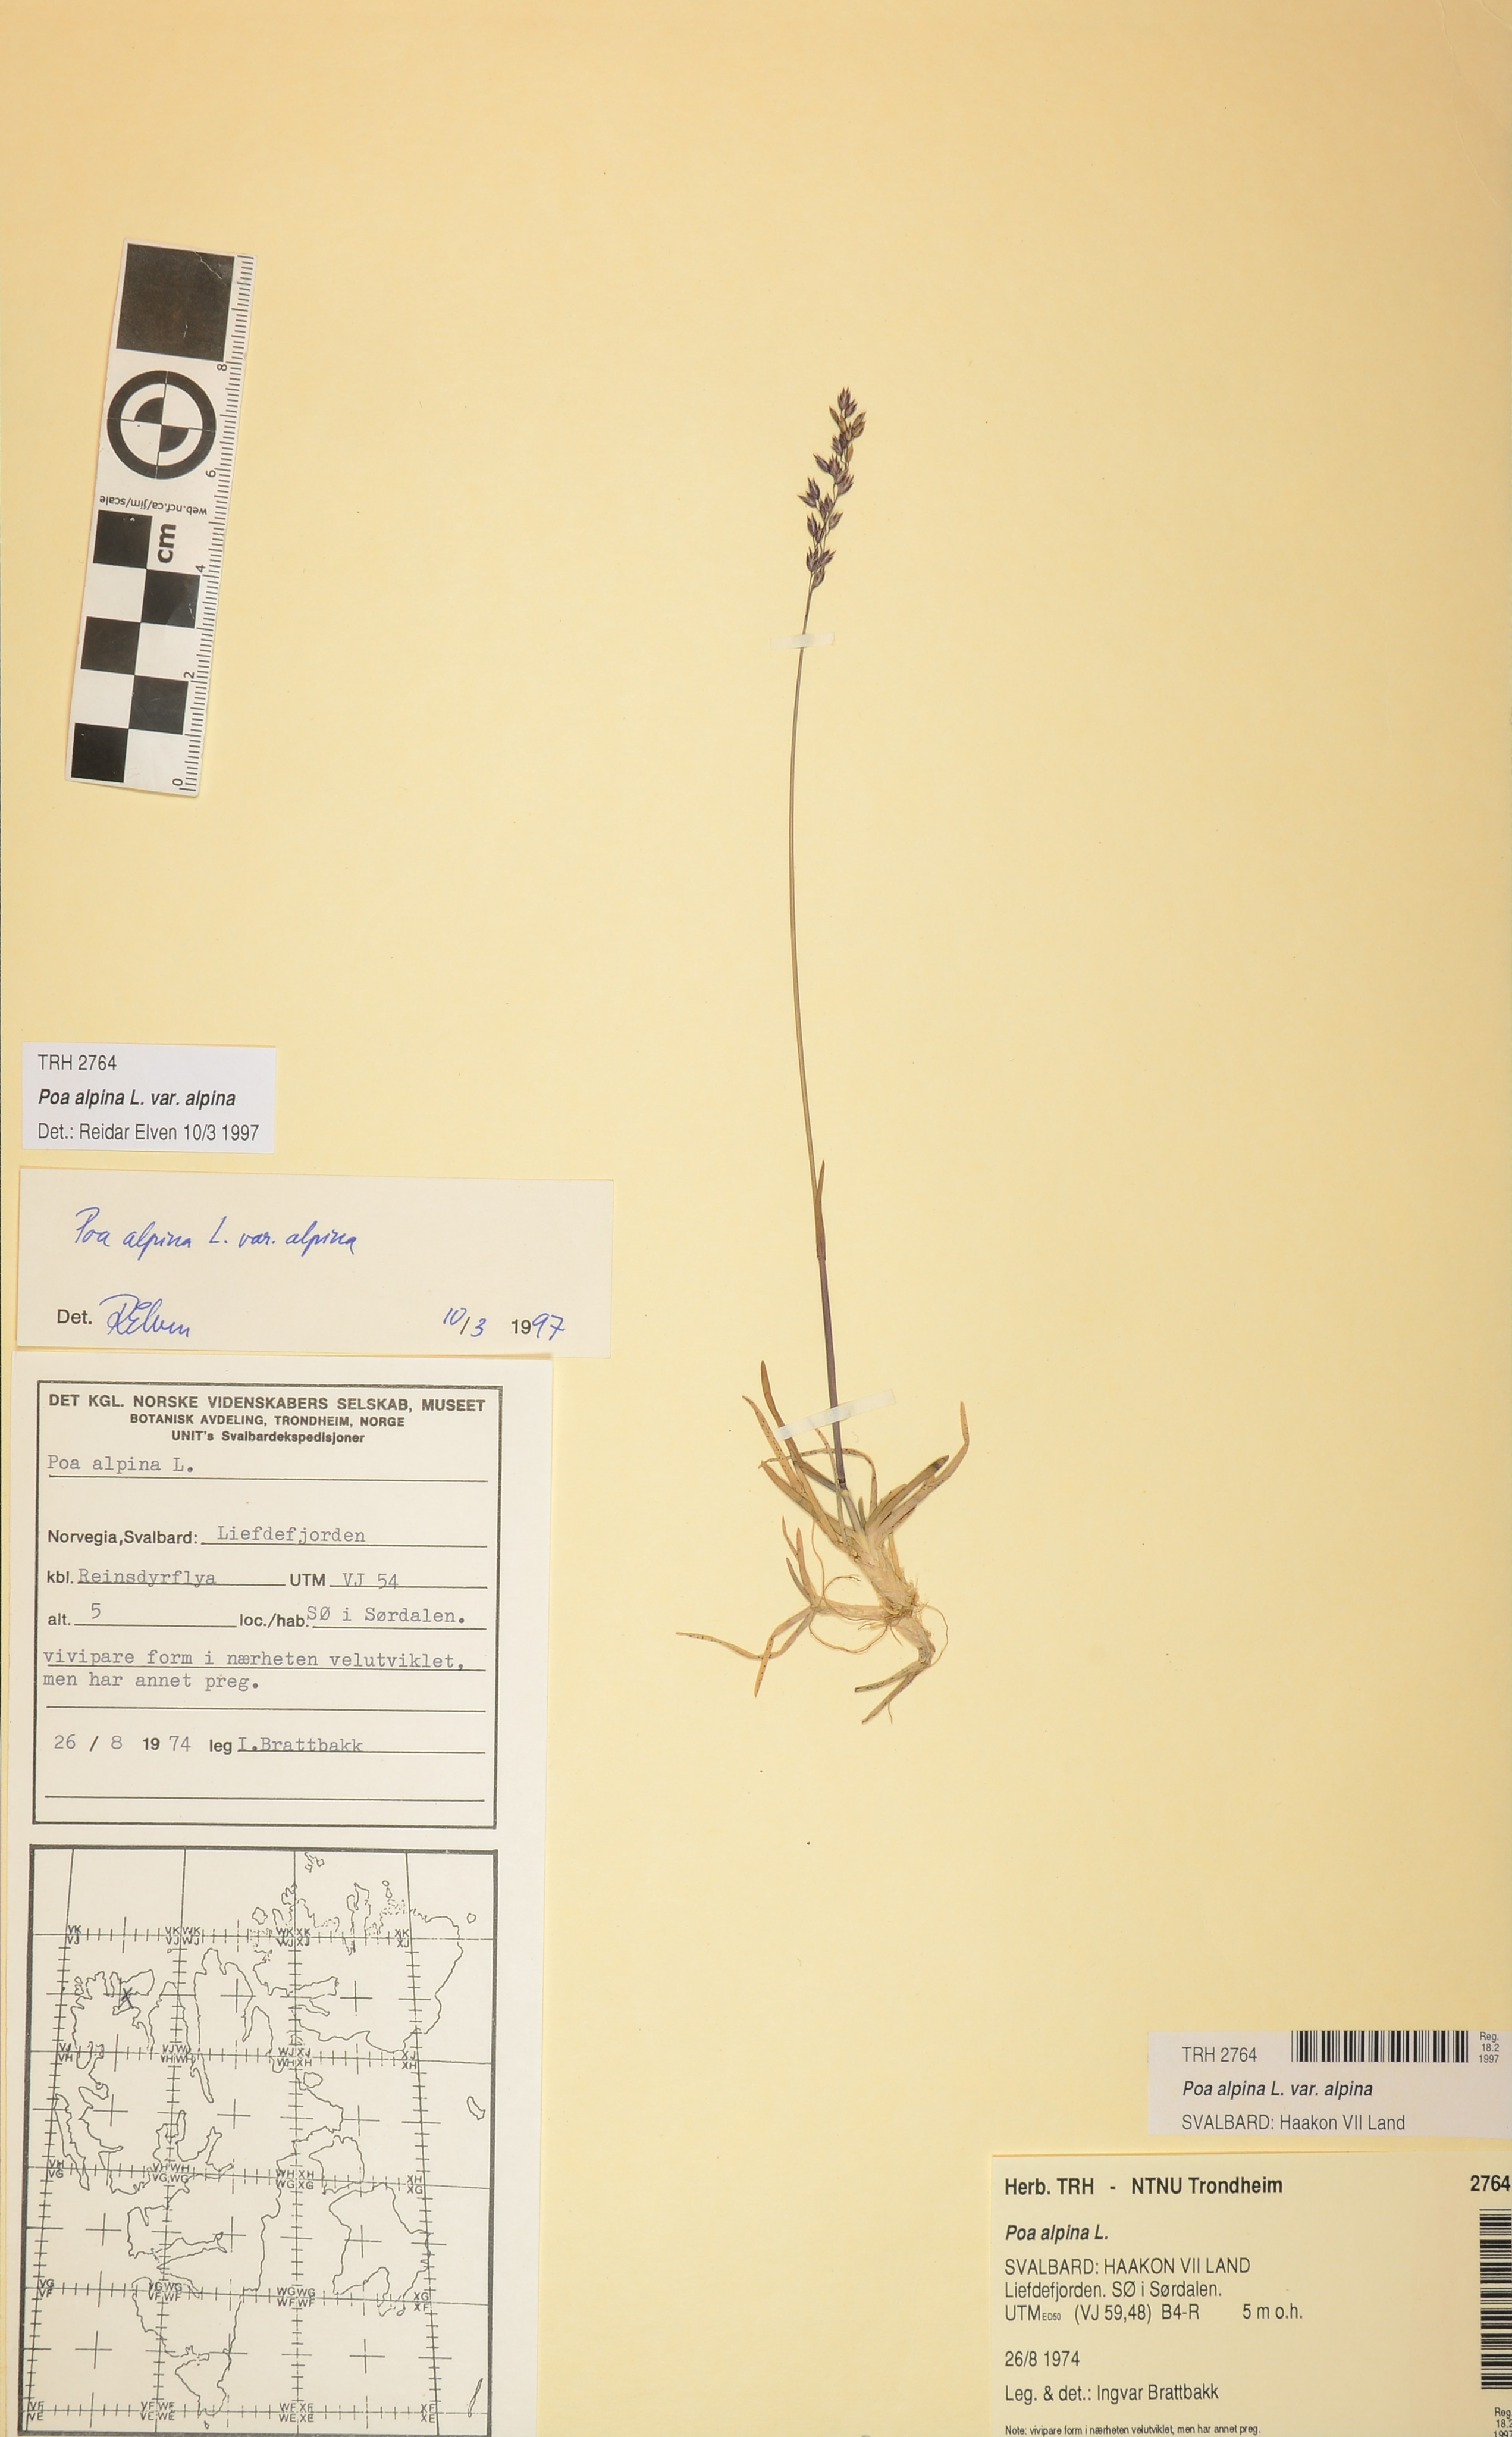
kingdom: Plantae
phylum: Tracheophyta
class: Liliopsida
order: Poales
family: Poaceae
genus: Poa
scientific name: Poa alpina
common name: Alpine bluegrass
